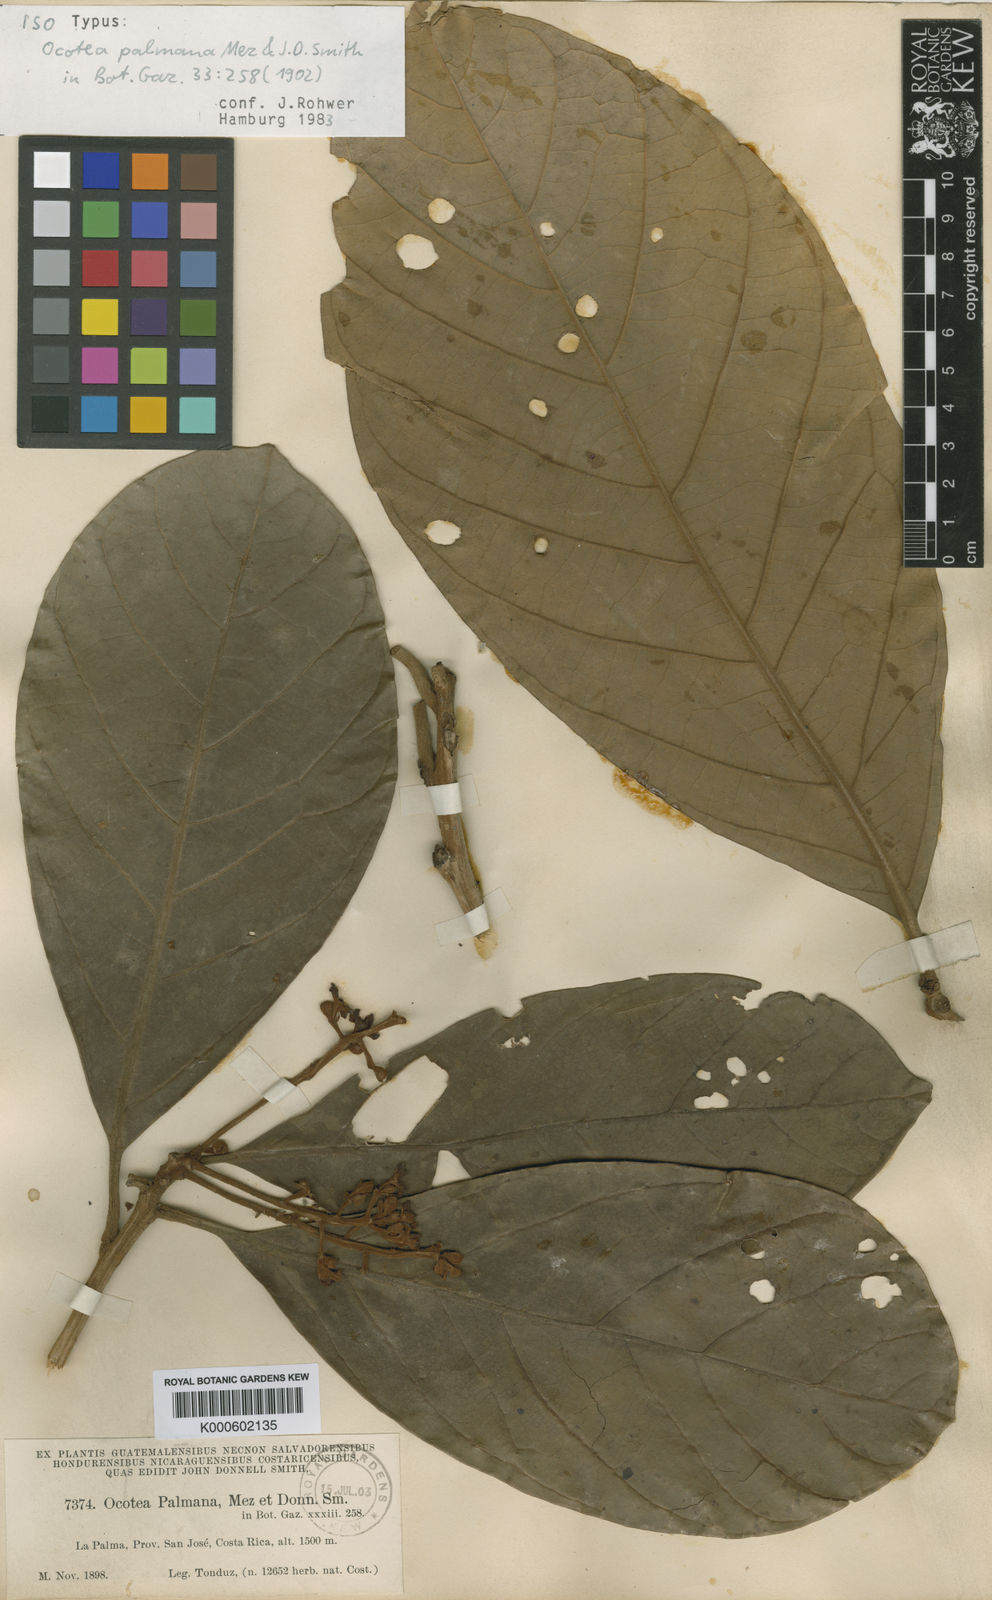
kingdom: Plantae
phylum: Tracheophyta
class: Magnoliopsida
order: Laurales
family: Lauraceae
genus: Pleurothyrium
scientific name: Pleurothyrium palmanum
